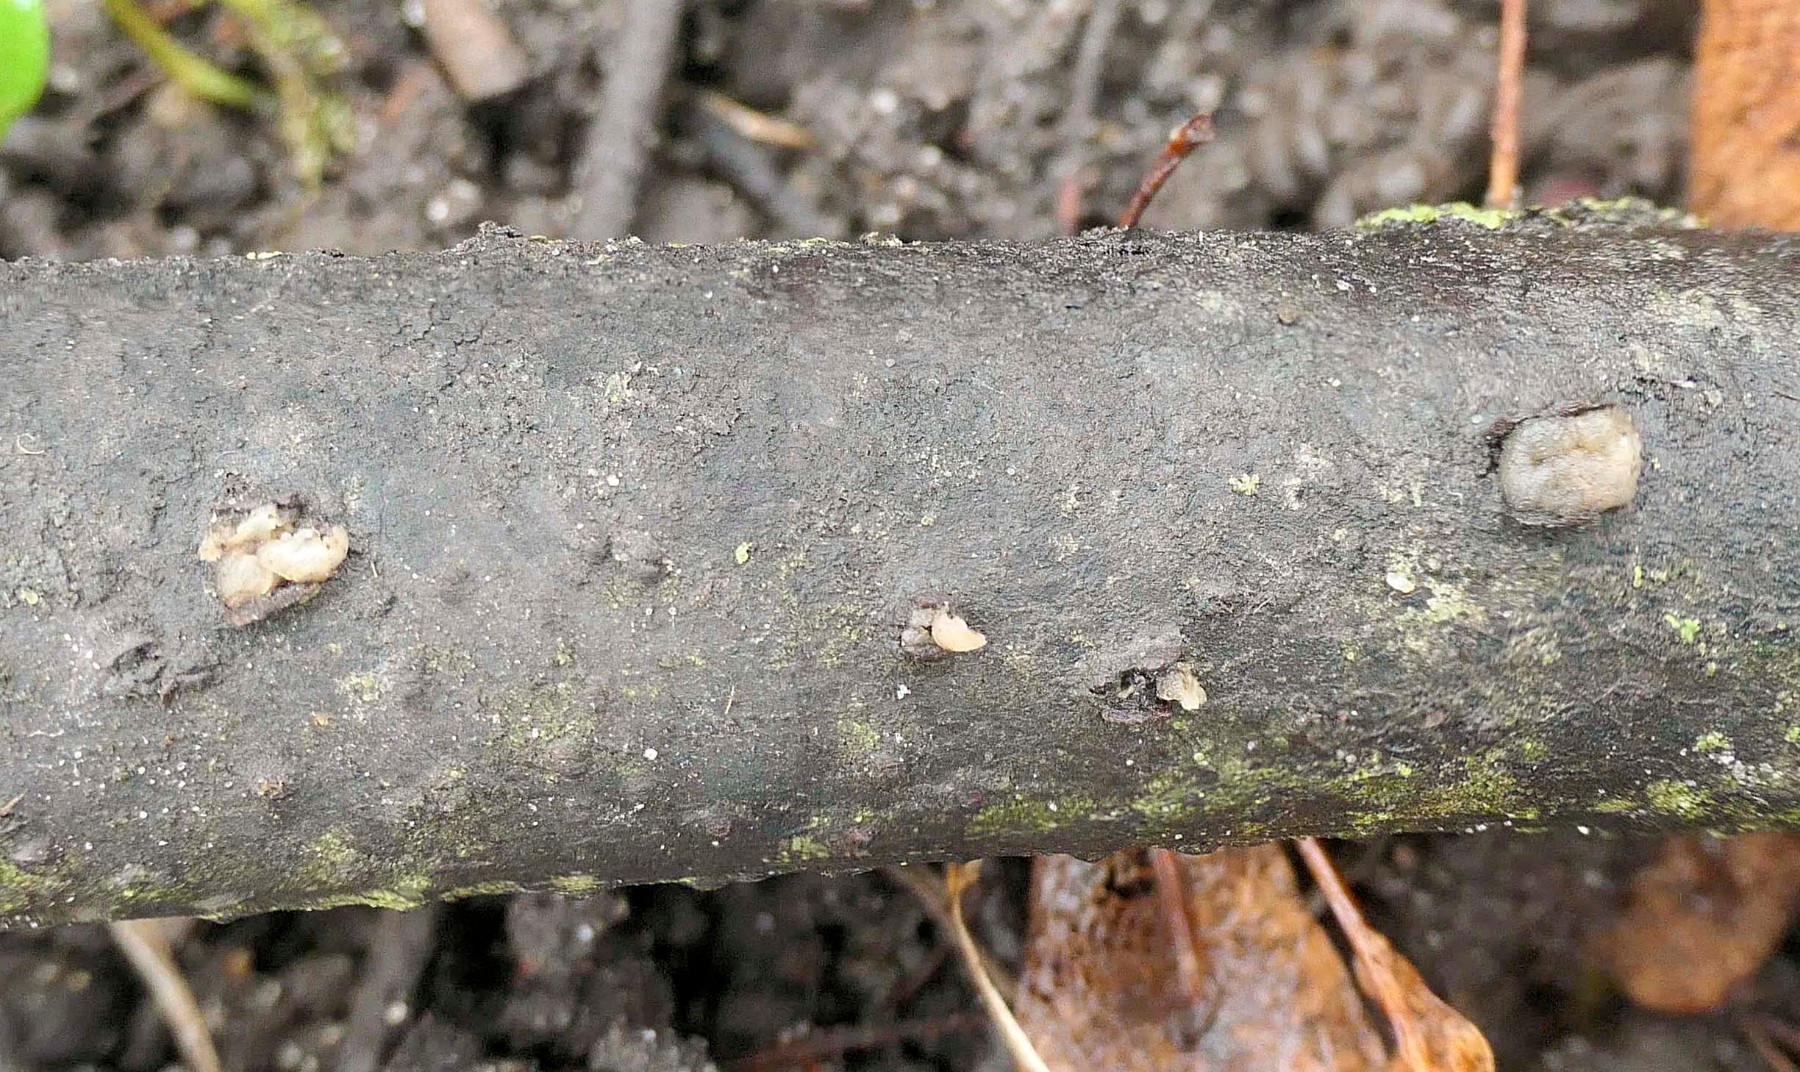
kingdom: Fungi
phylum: Basidiomycota
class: Pucciniomycetes
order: Platygloeales
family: Platygloeaceae
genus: Platygloea
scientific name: Platygloea disciformis
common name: linde-slimklat
